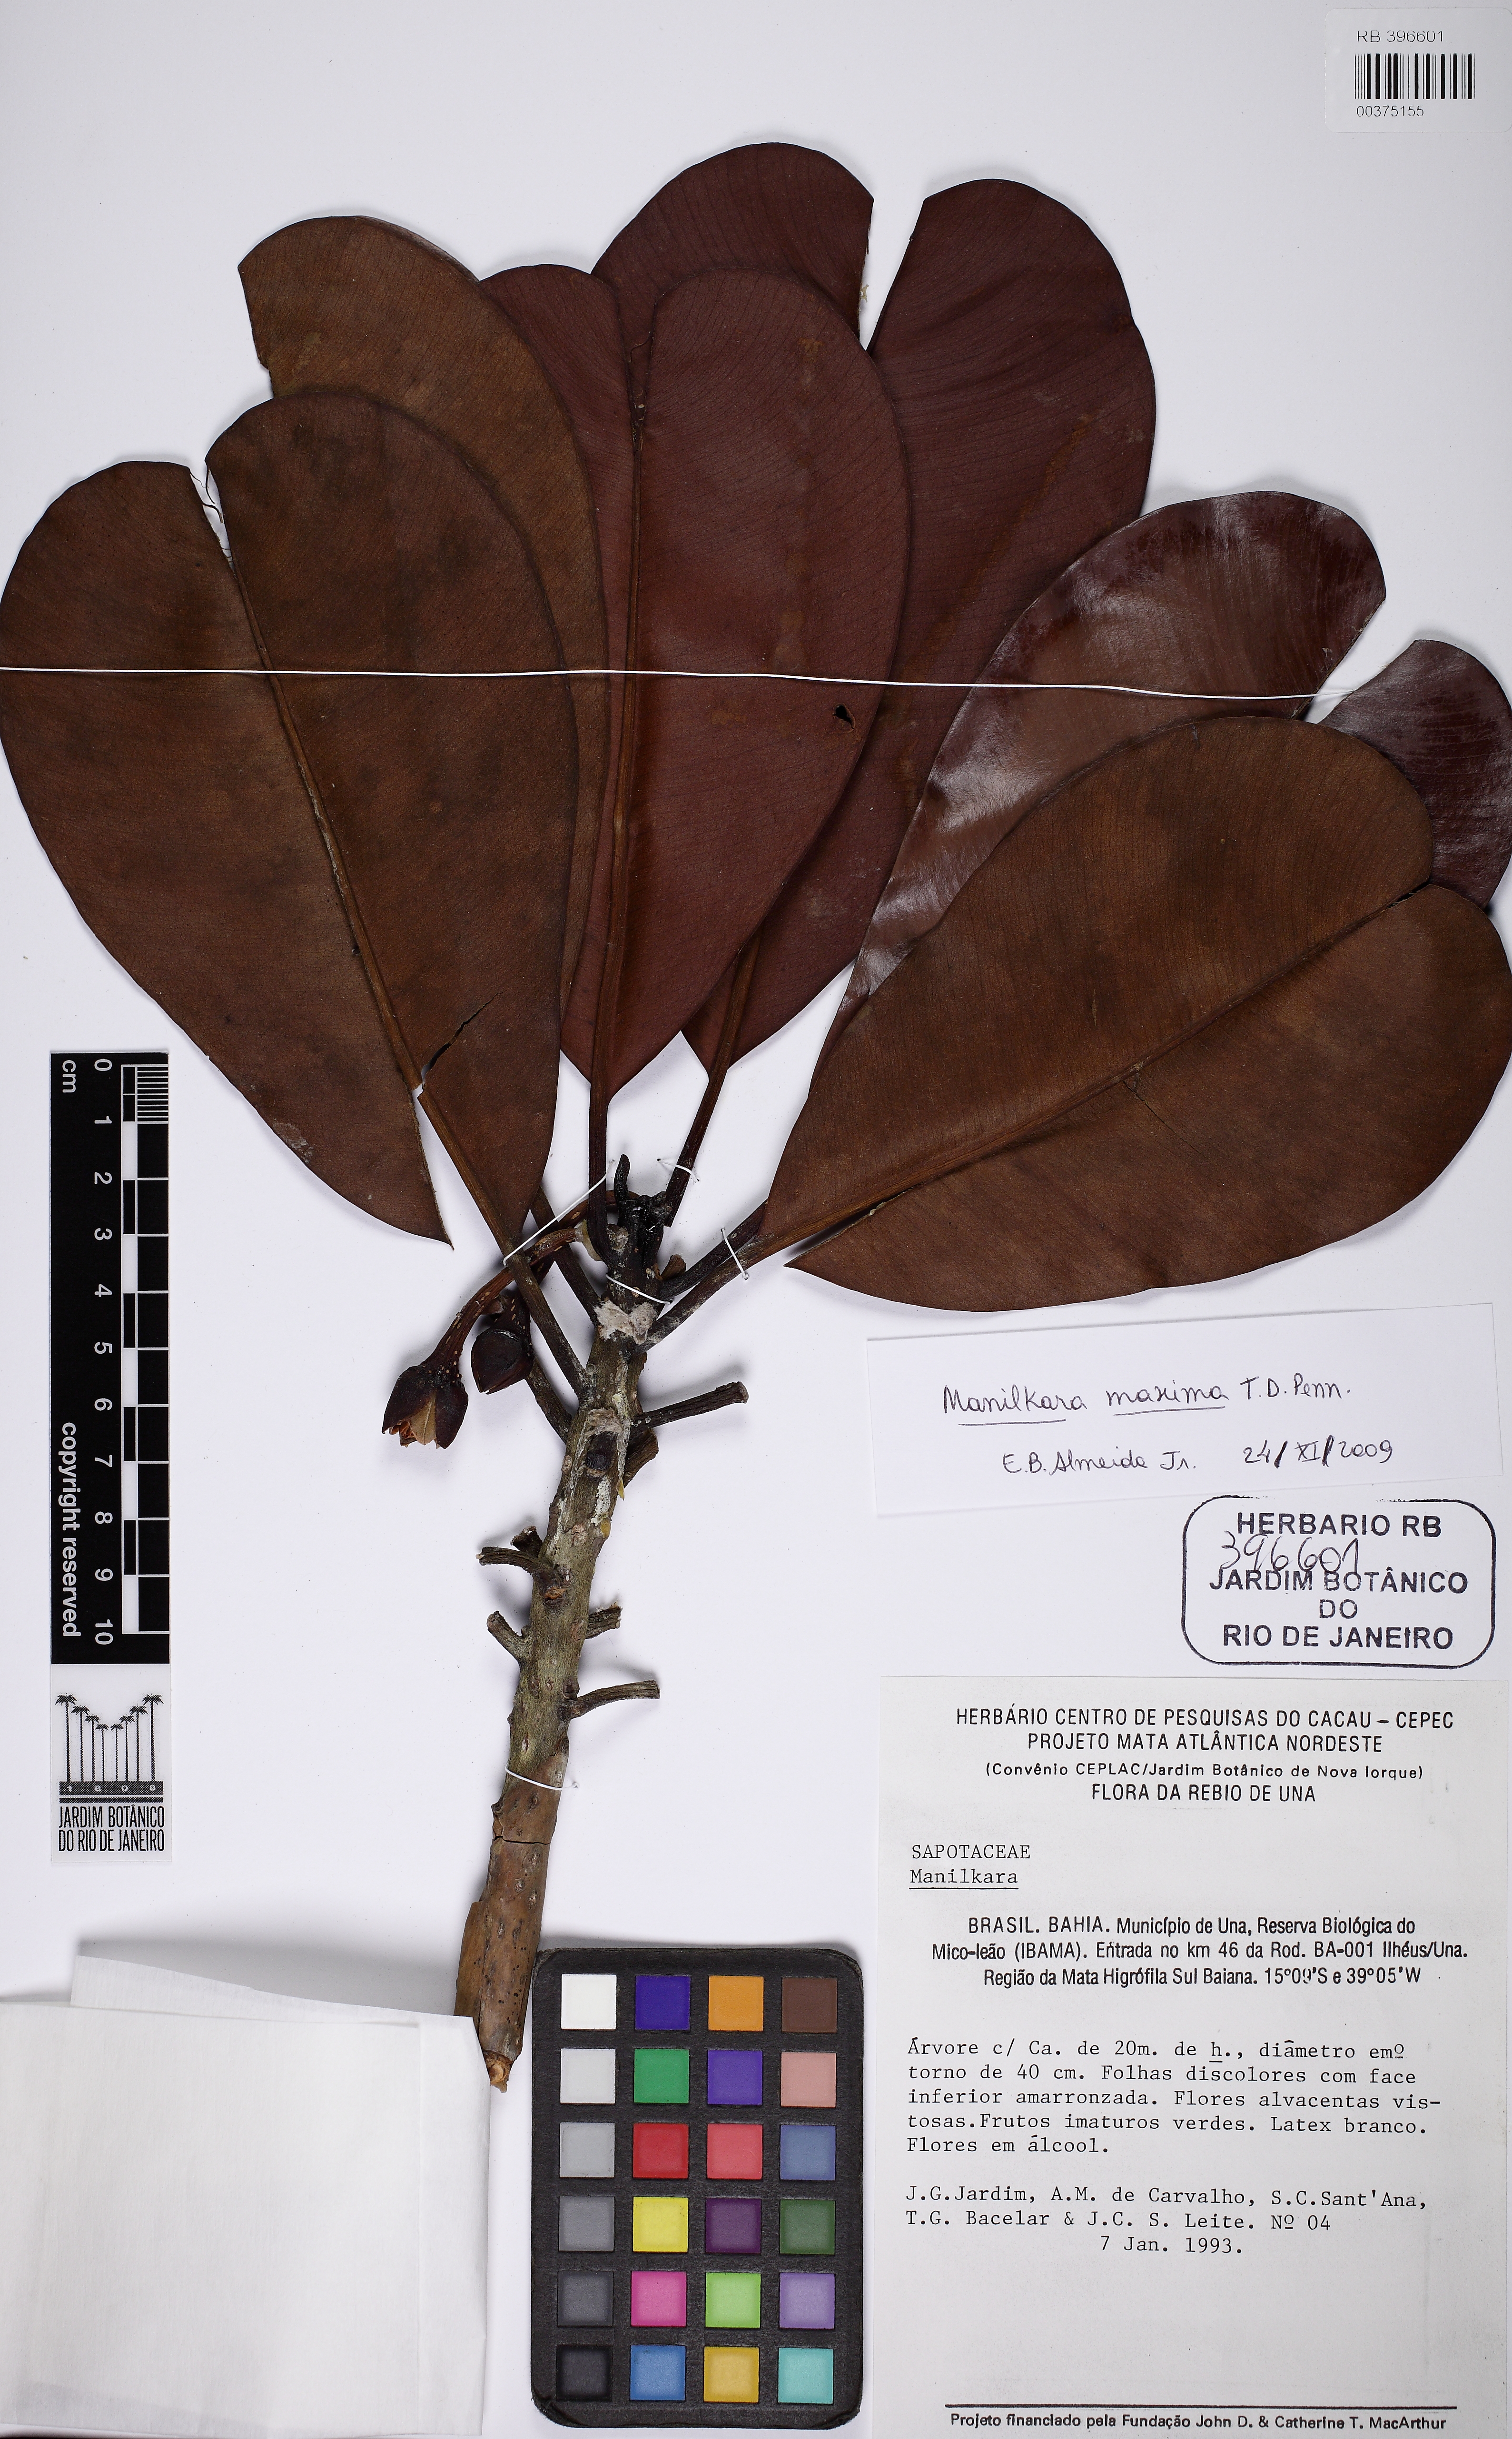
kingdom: Plantae
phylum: Tracheophyta
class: Magnoliopsida
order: Ericales
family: Sapotaceae
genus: Manilkara
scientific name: Manilkara maxima
